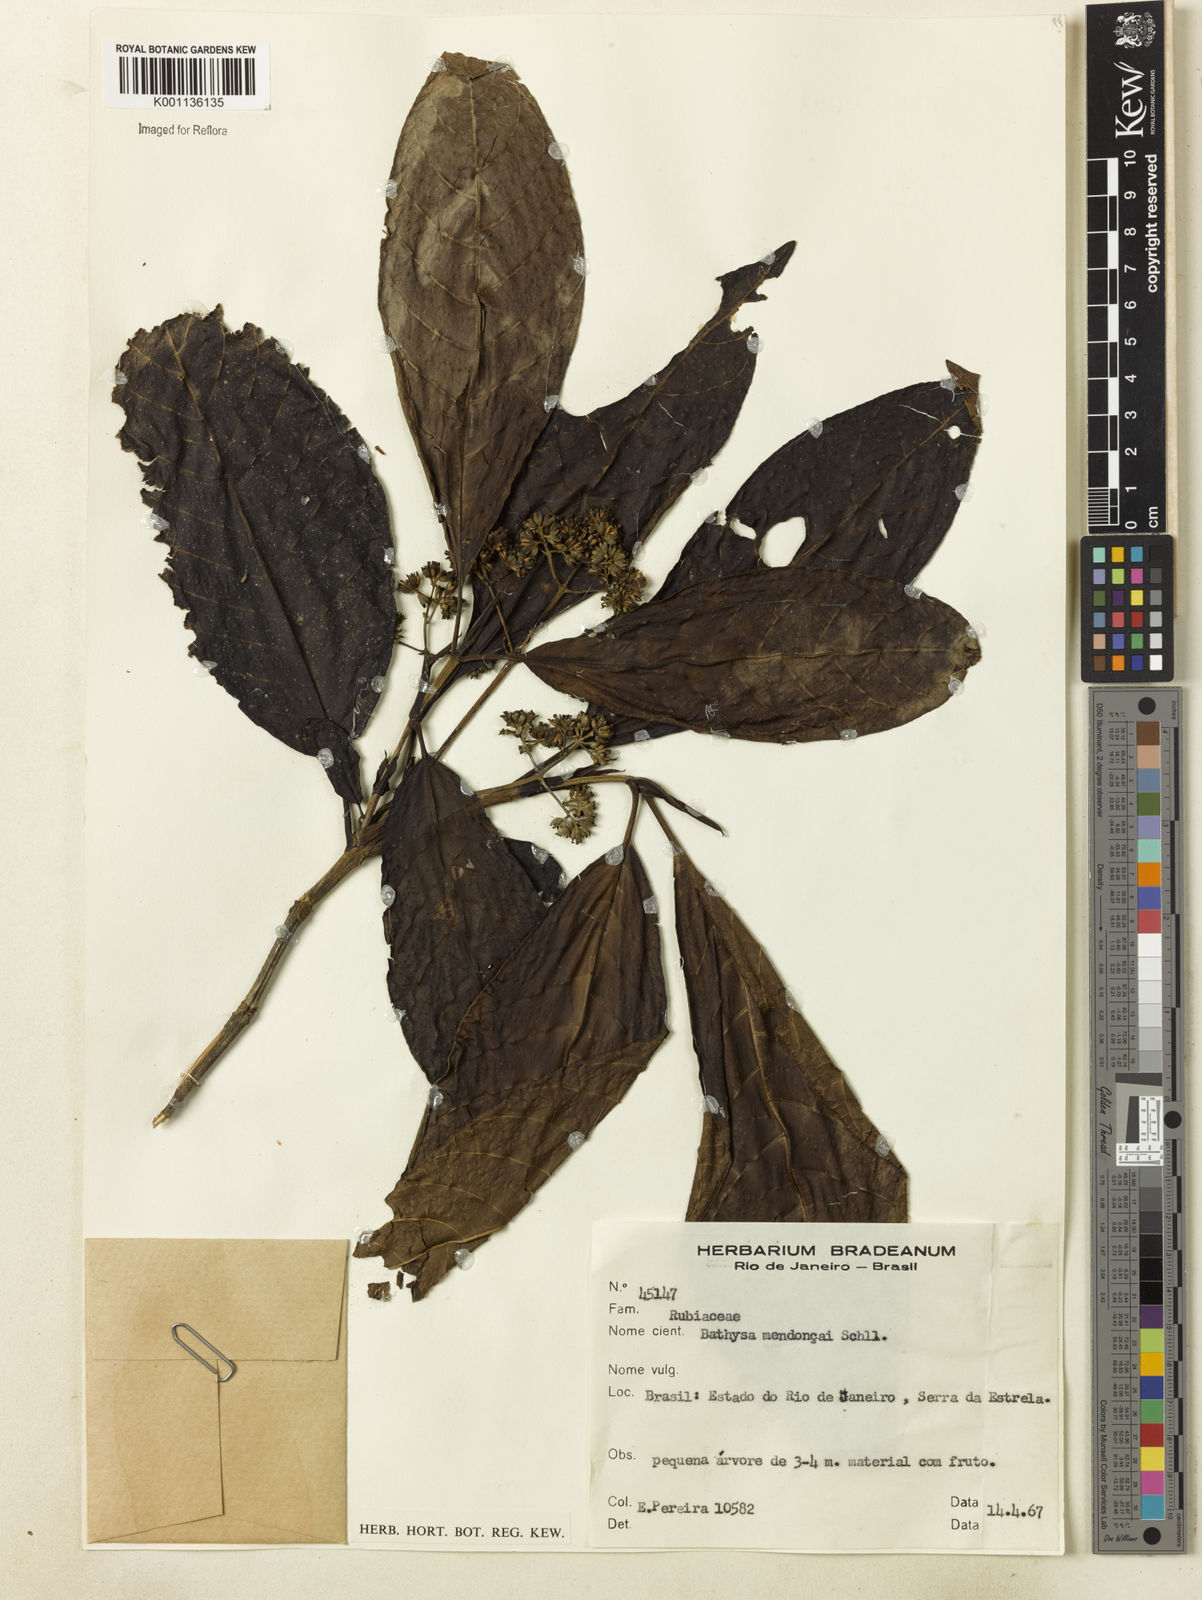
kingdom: Plantae
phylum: Tracheophyta
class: Magnoliopsida
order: Gentianales
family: Rubiaceae
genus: Bathysa
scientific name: Bathysa
